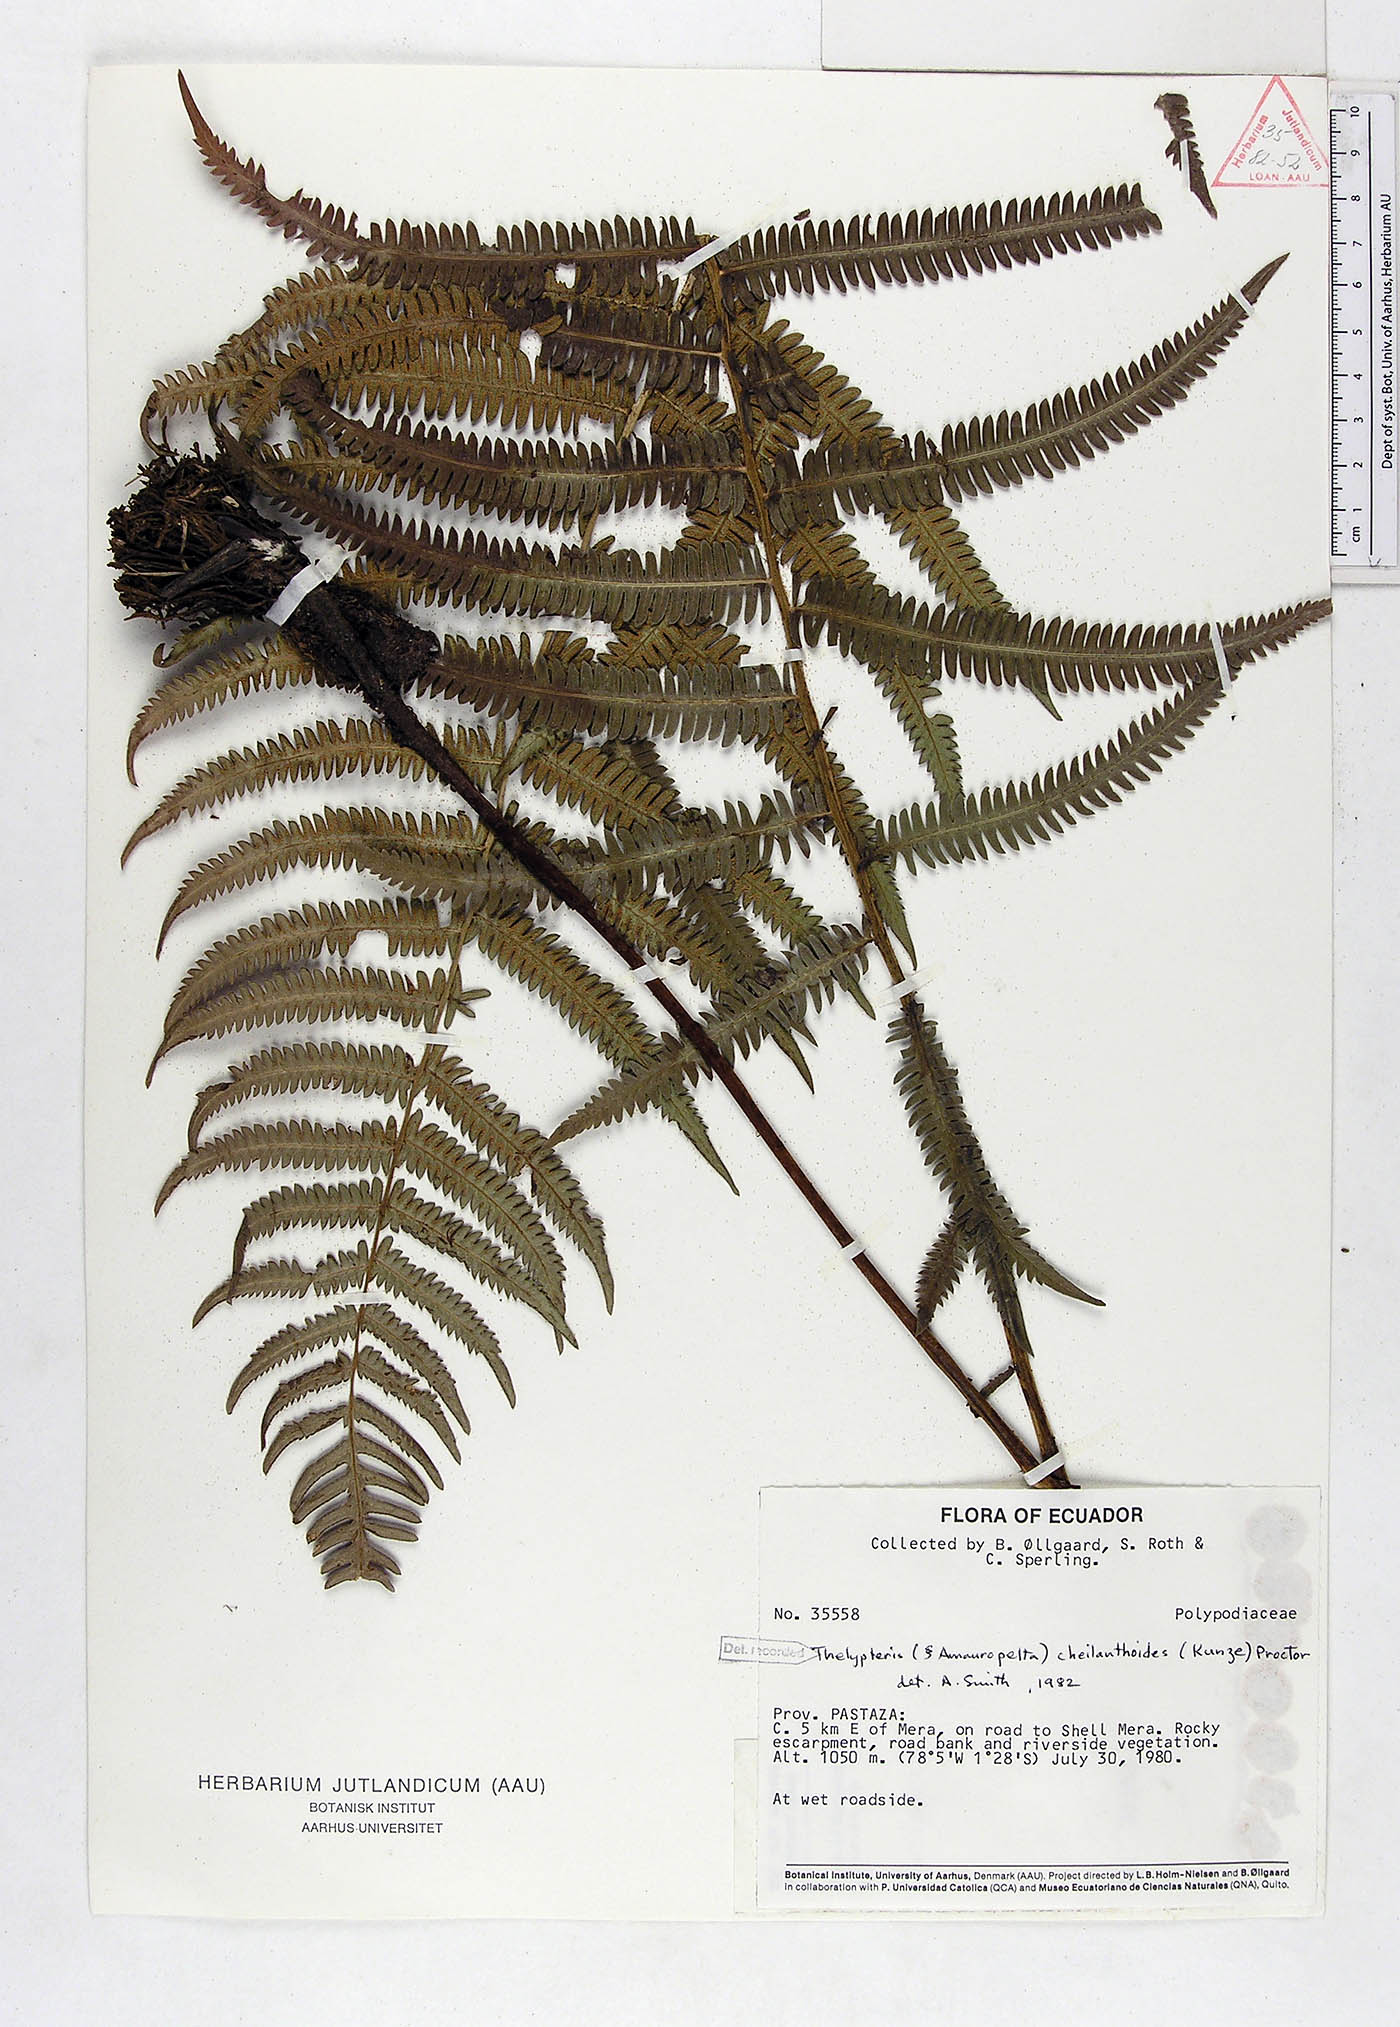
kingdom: Plantae
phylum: Tracheophyta
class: Polypodiopsida
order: Polypodiales
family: Thelypteridaceae
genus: Amauropelta
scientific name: Amauropelta cheilanthoides
